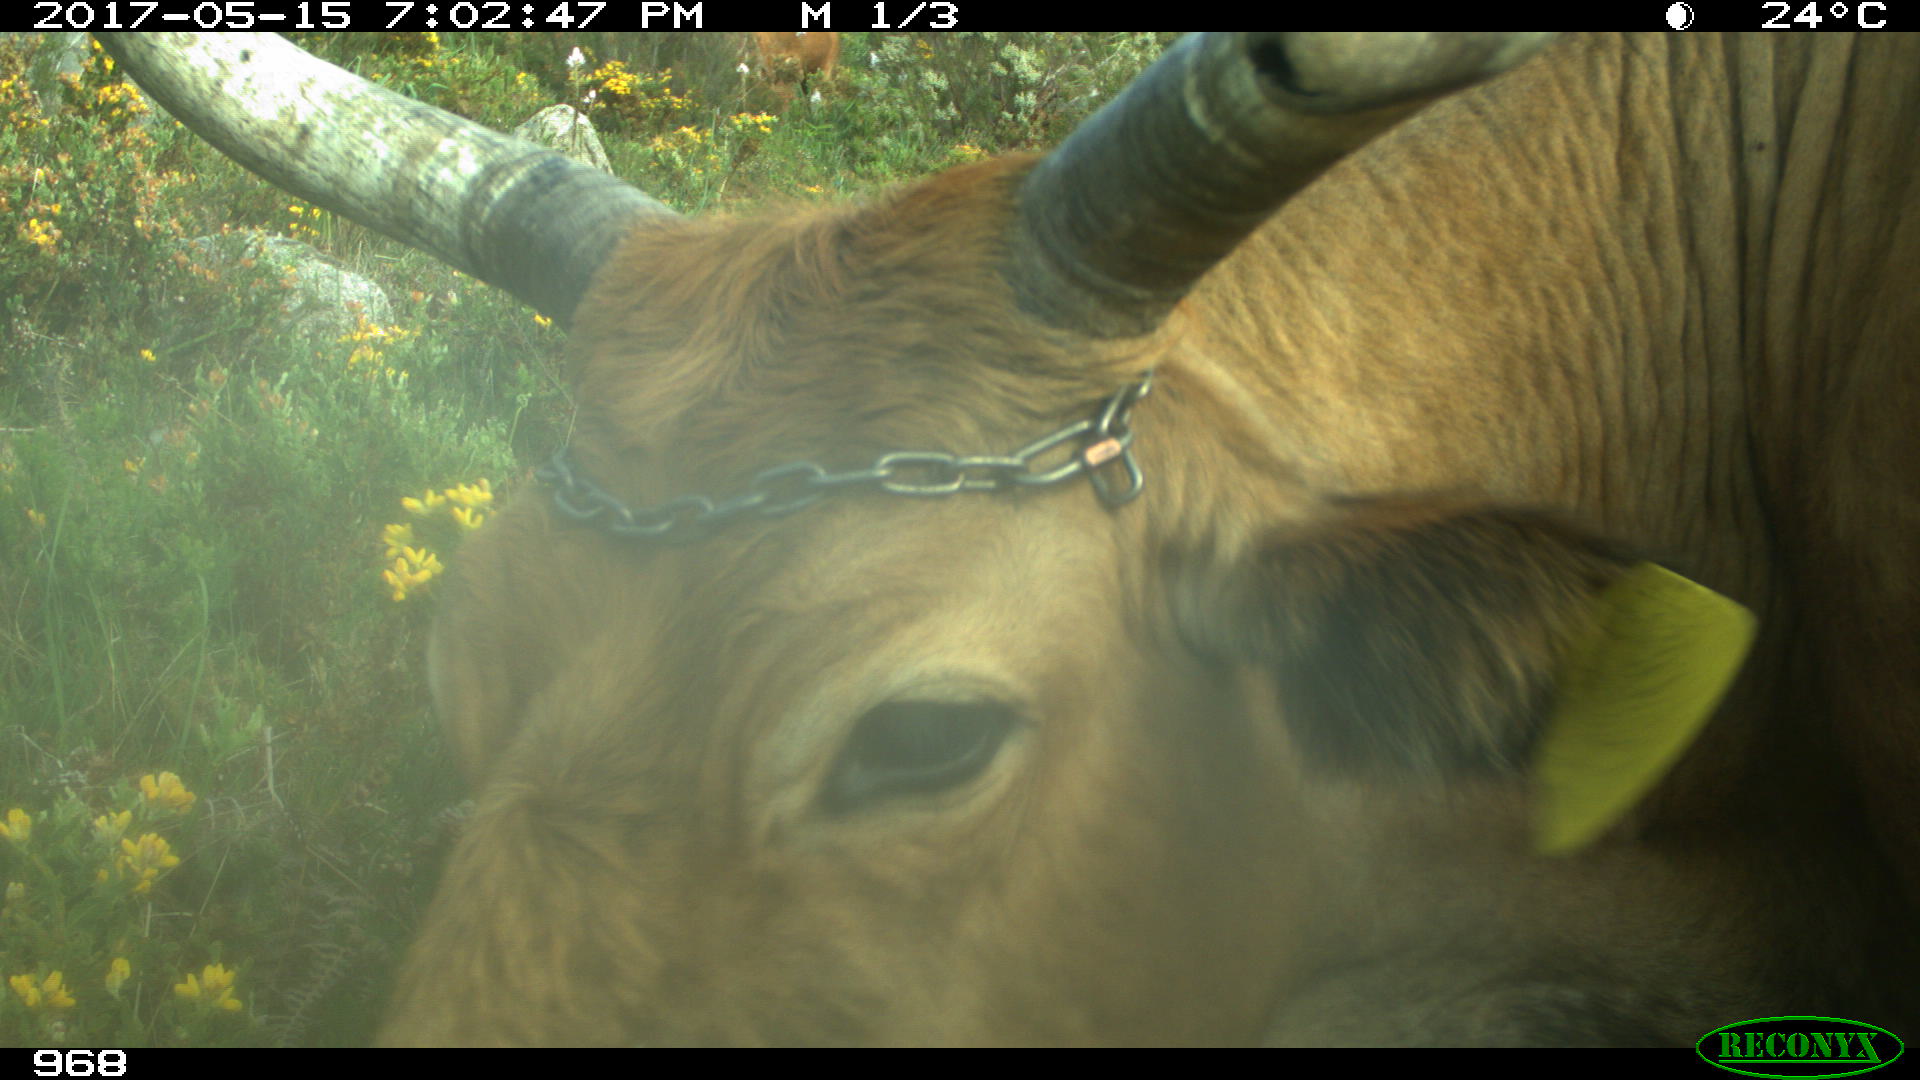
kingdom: Animalia
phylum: Chordata
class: Mammalia
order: Artiodactyla
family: Bovidae
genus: Bos
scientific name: Bos taurus
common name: Domesticated cattle
